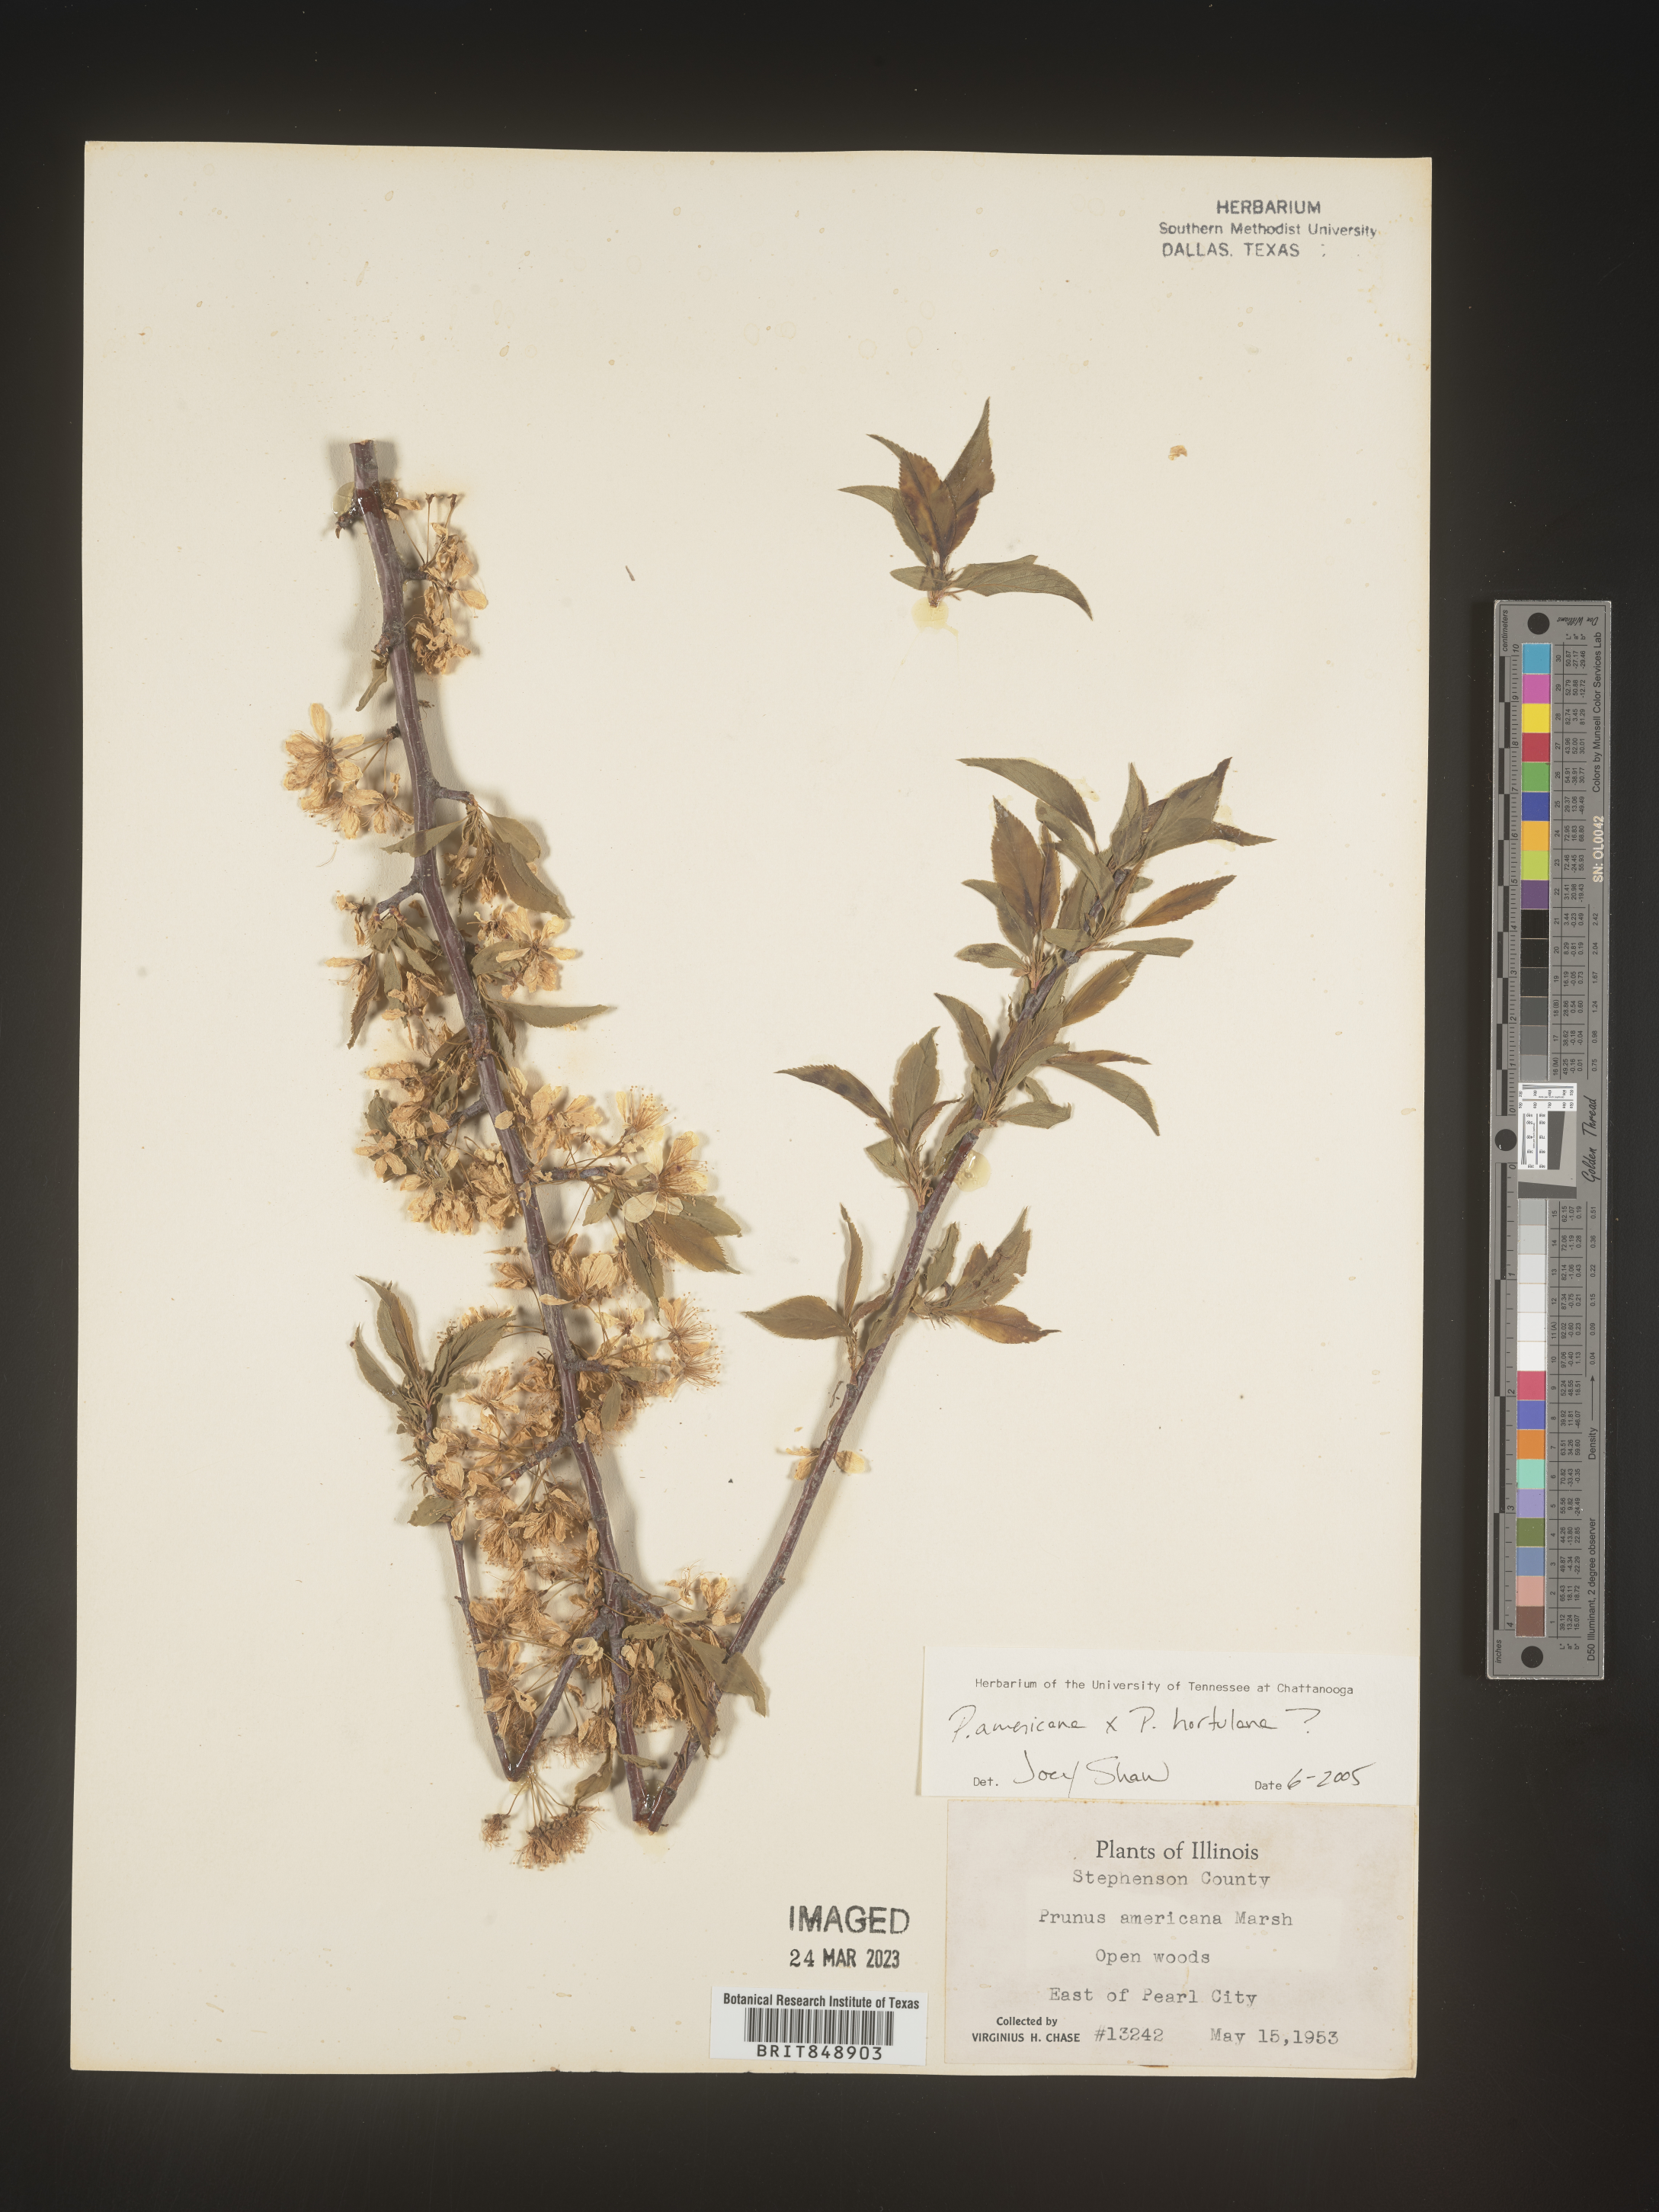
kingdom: Plantae
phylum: Tracheophyta
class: Magnoliopsida
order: Rosales
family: Rosaceae
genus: Prunus
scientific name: Prunus americana
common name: American plum
